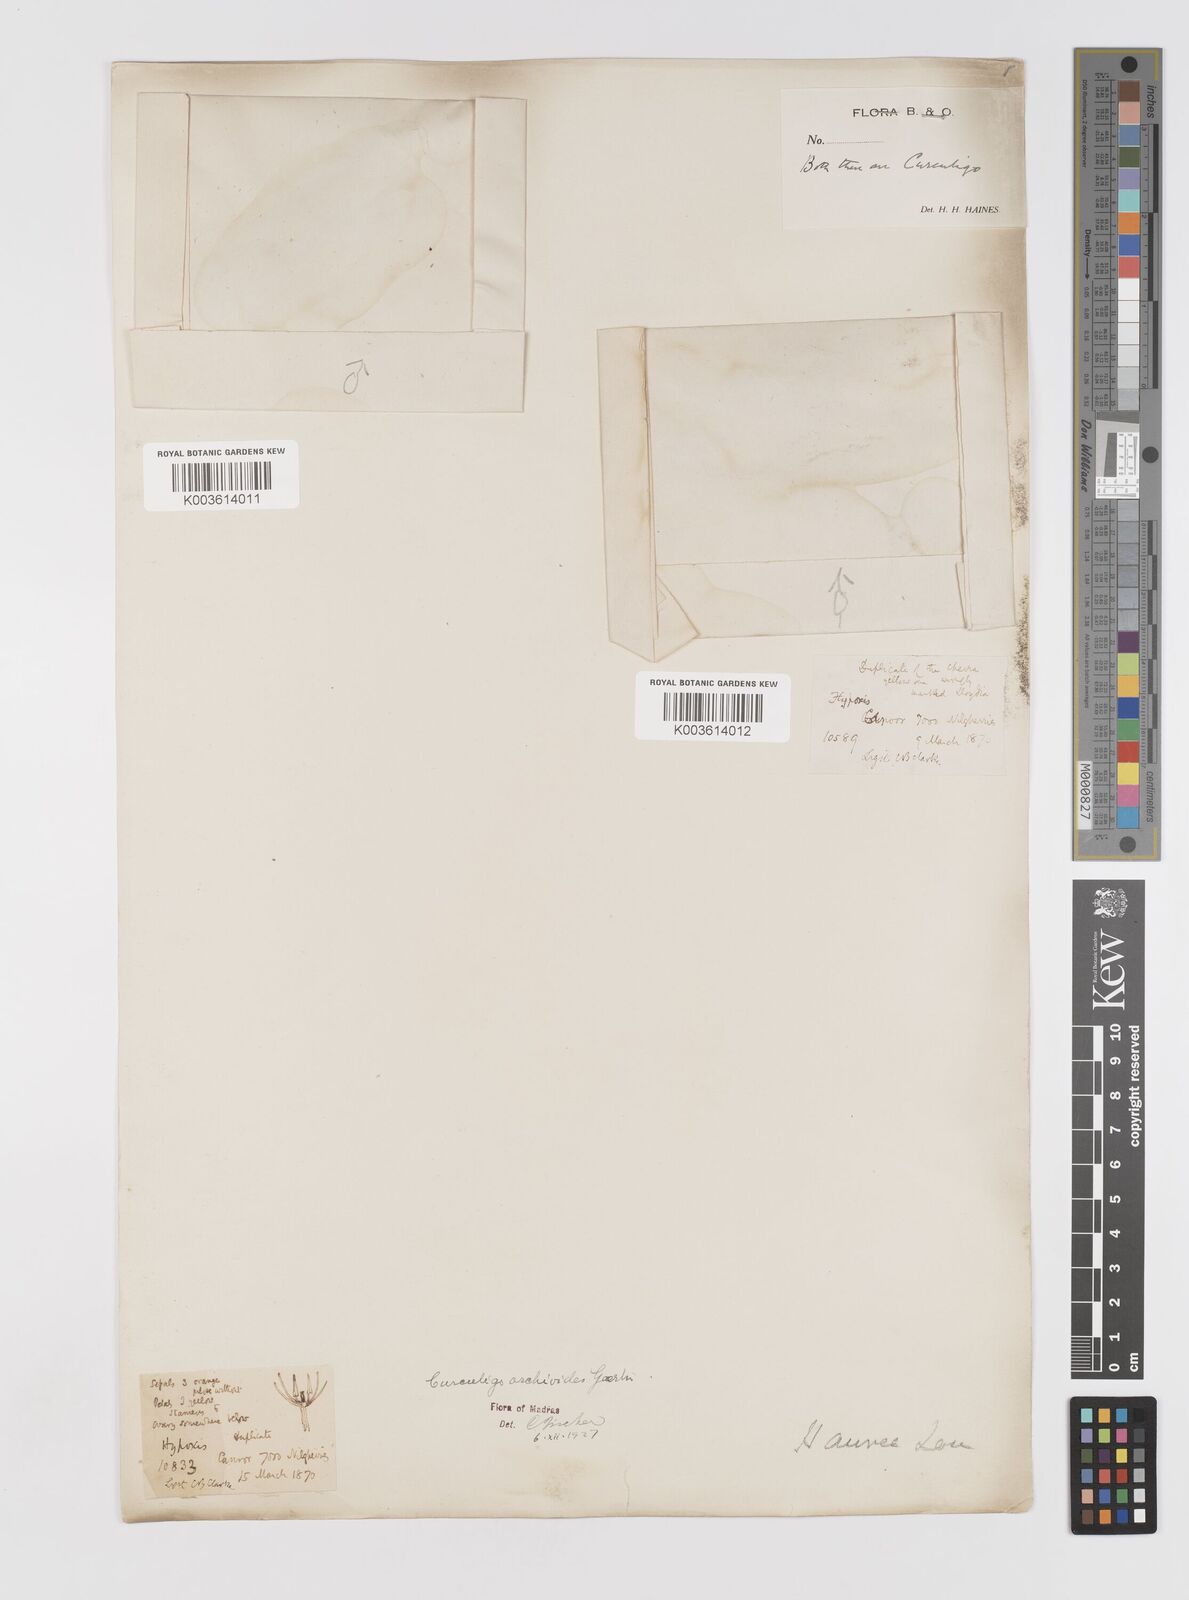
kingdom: Plantae
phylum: Tracheophyta
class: Liliopsida
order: Asparagales
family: Hypoxidaceae
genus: Curculigo
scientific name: Curculigo orchioides
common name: Golden eye-grass
